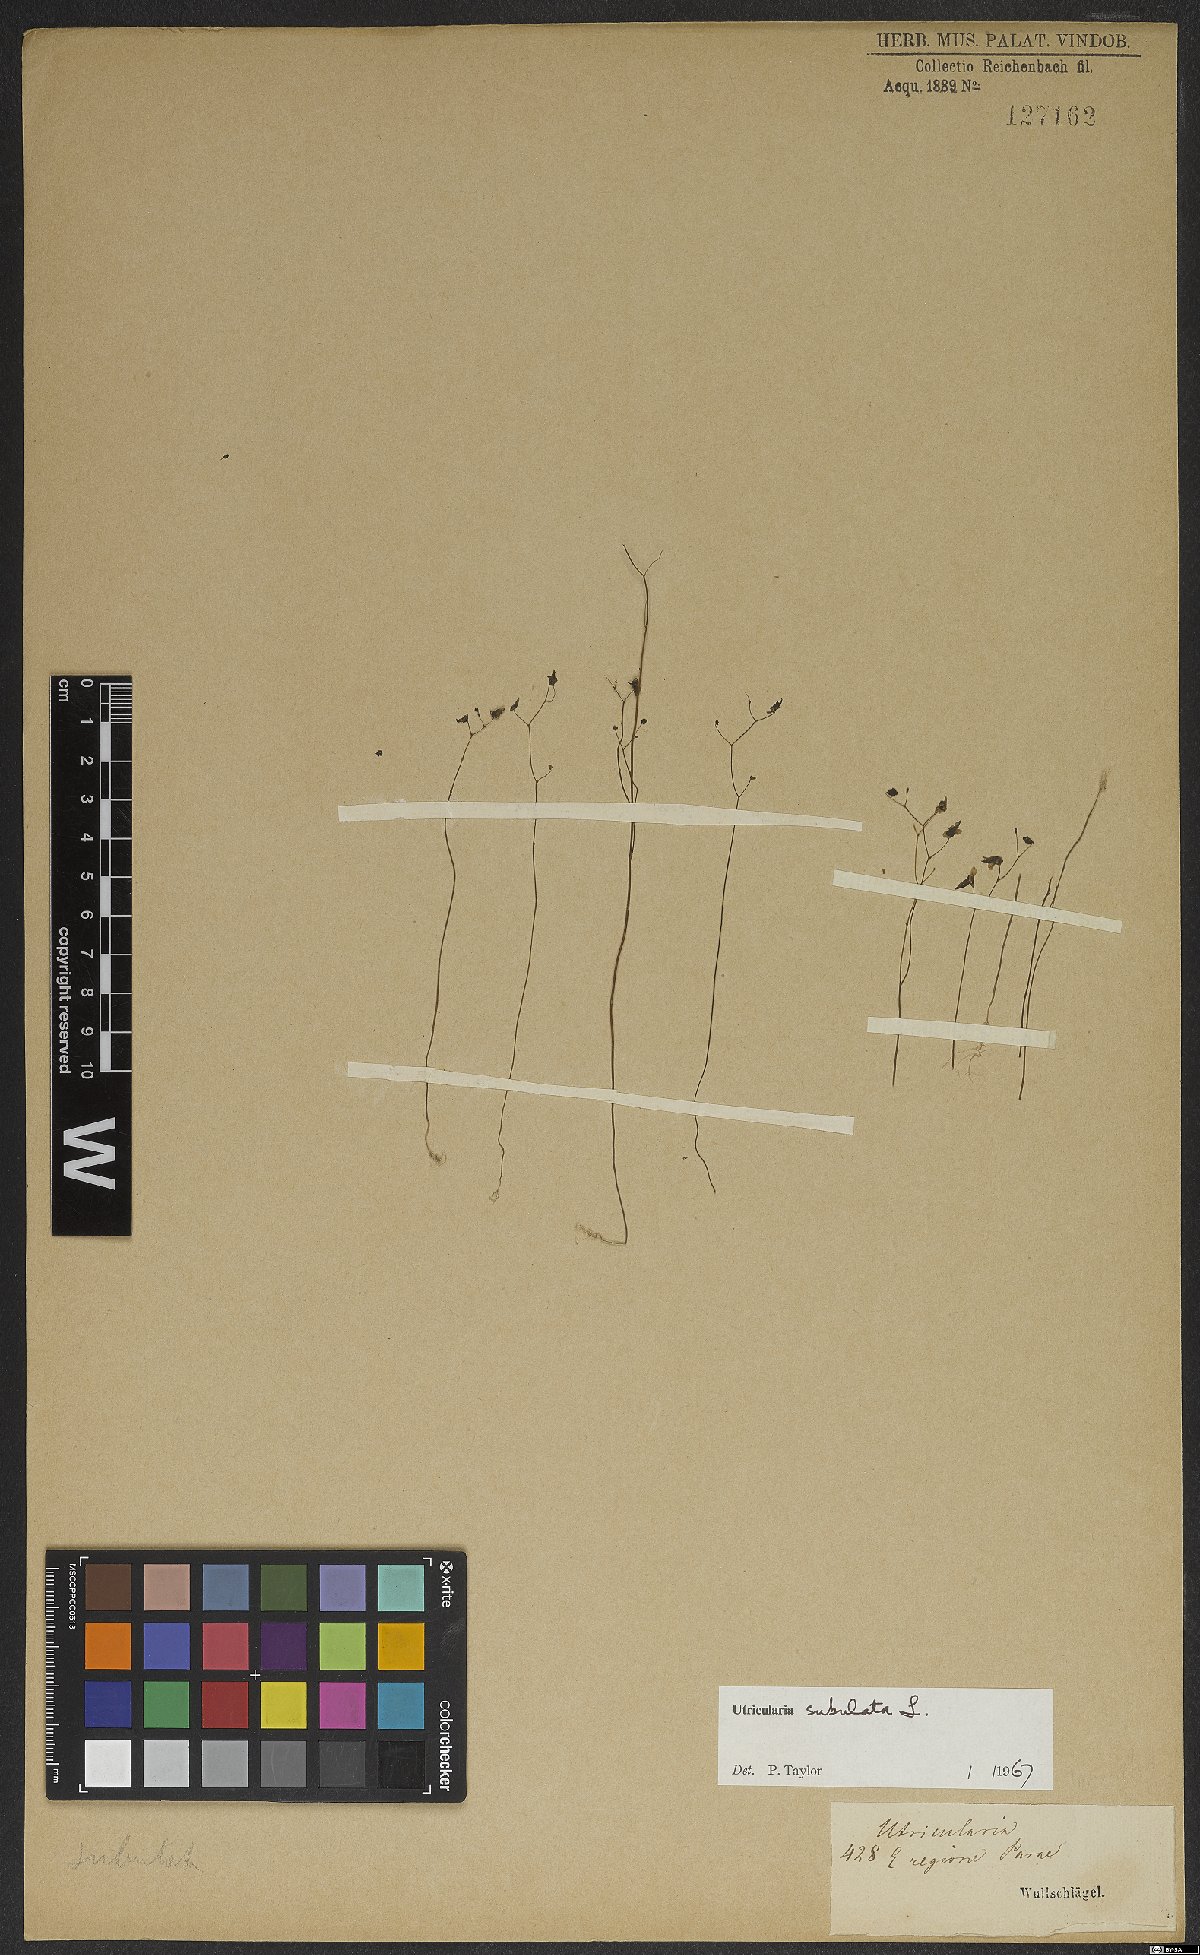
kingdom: Plantae
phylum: Tracheophyta
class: Magnoliopsida
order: Lamiales
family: Lentibulariaceae
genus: Utricularia
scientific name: Utricularia subulata
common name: Tiny bladderwort
